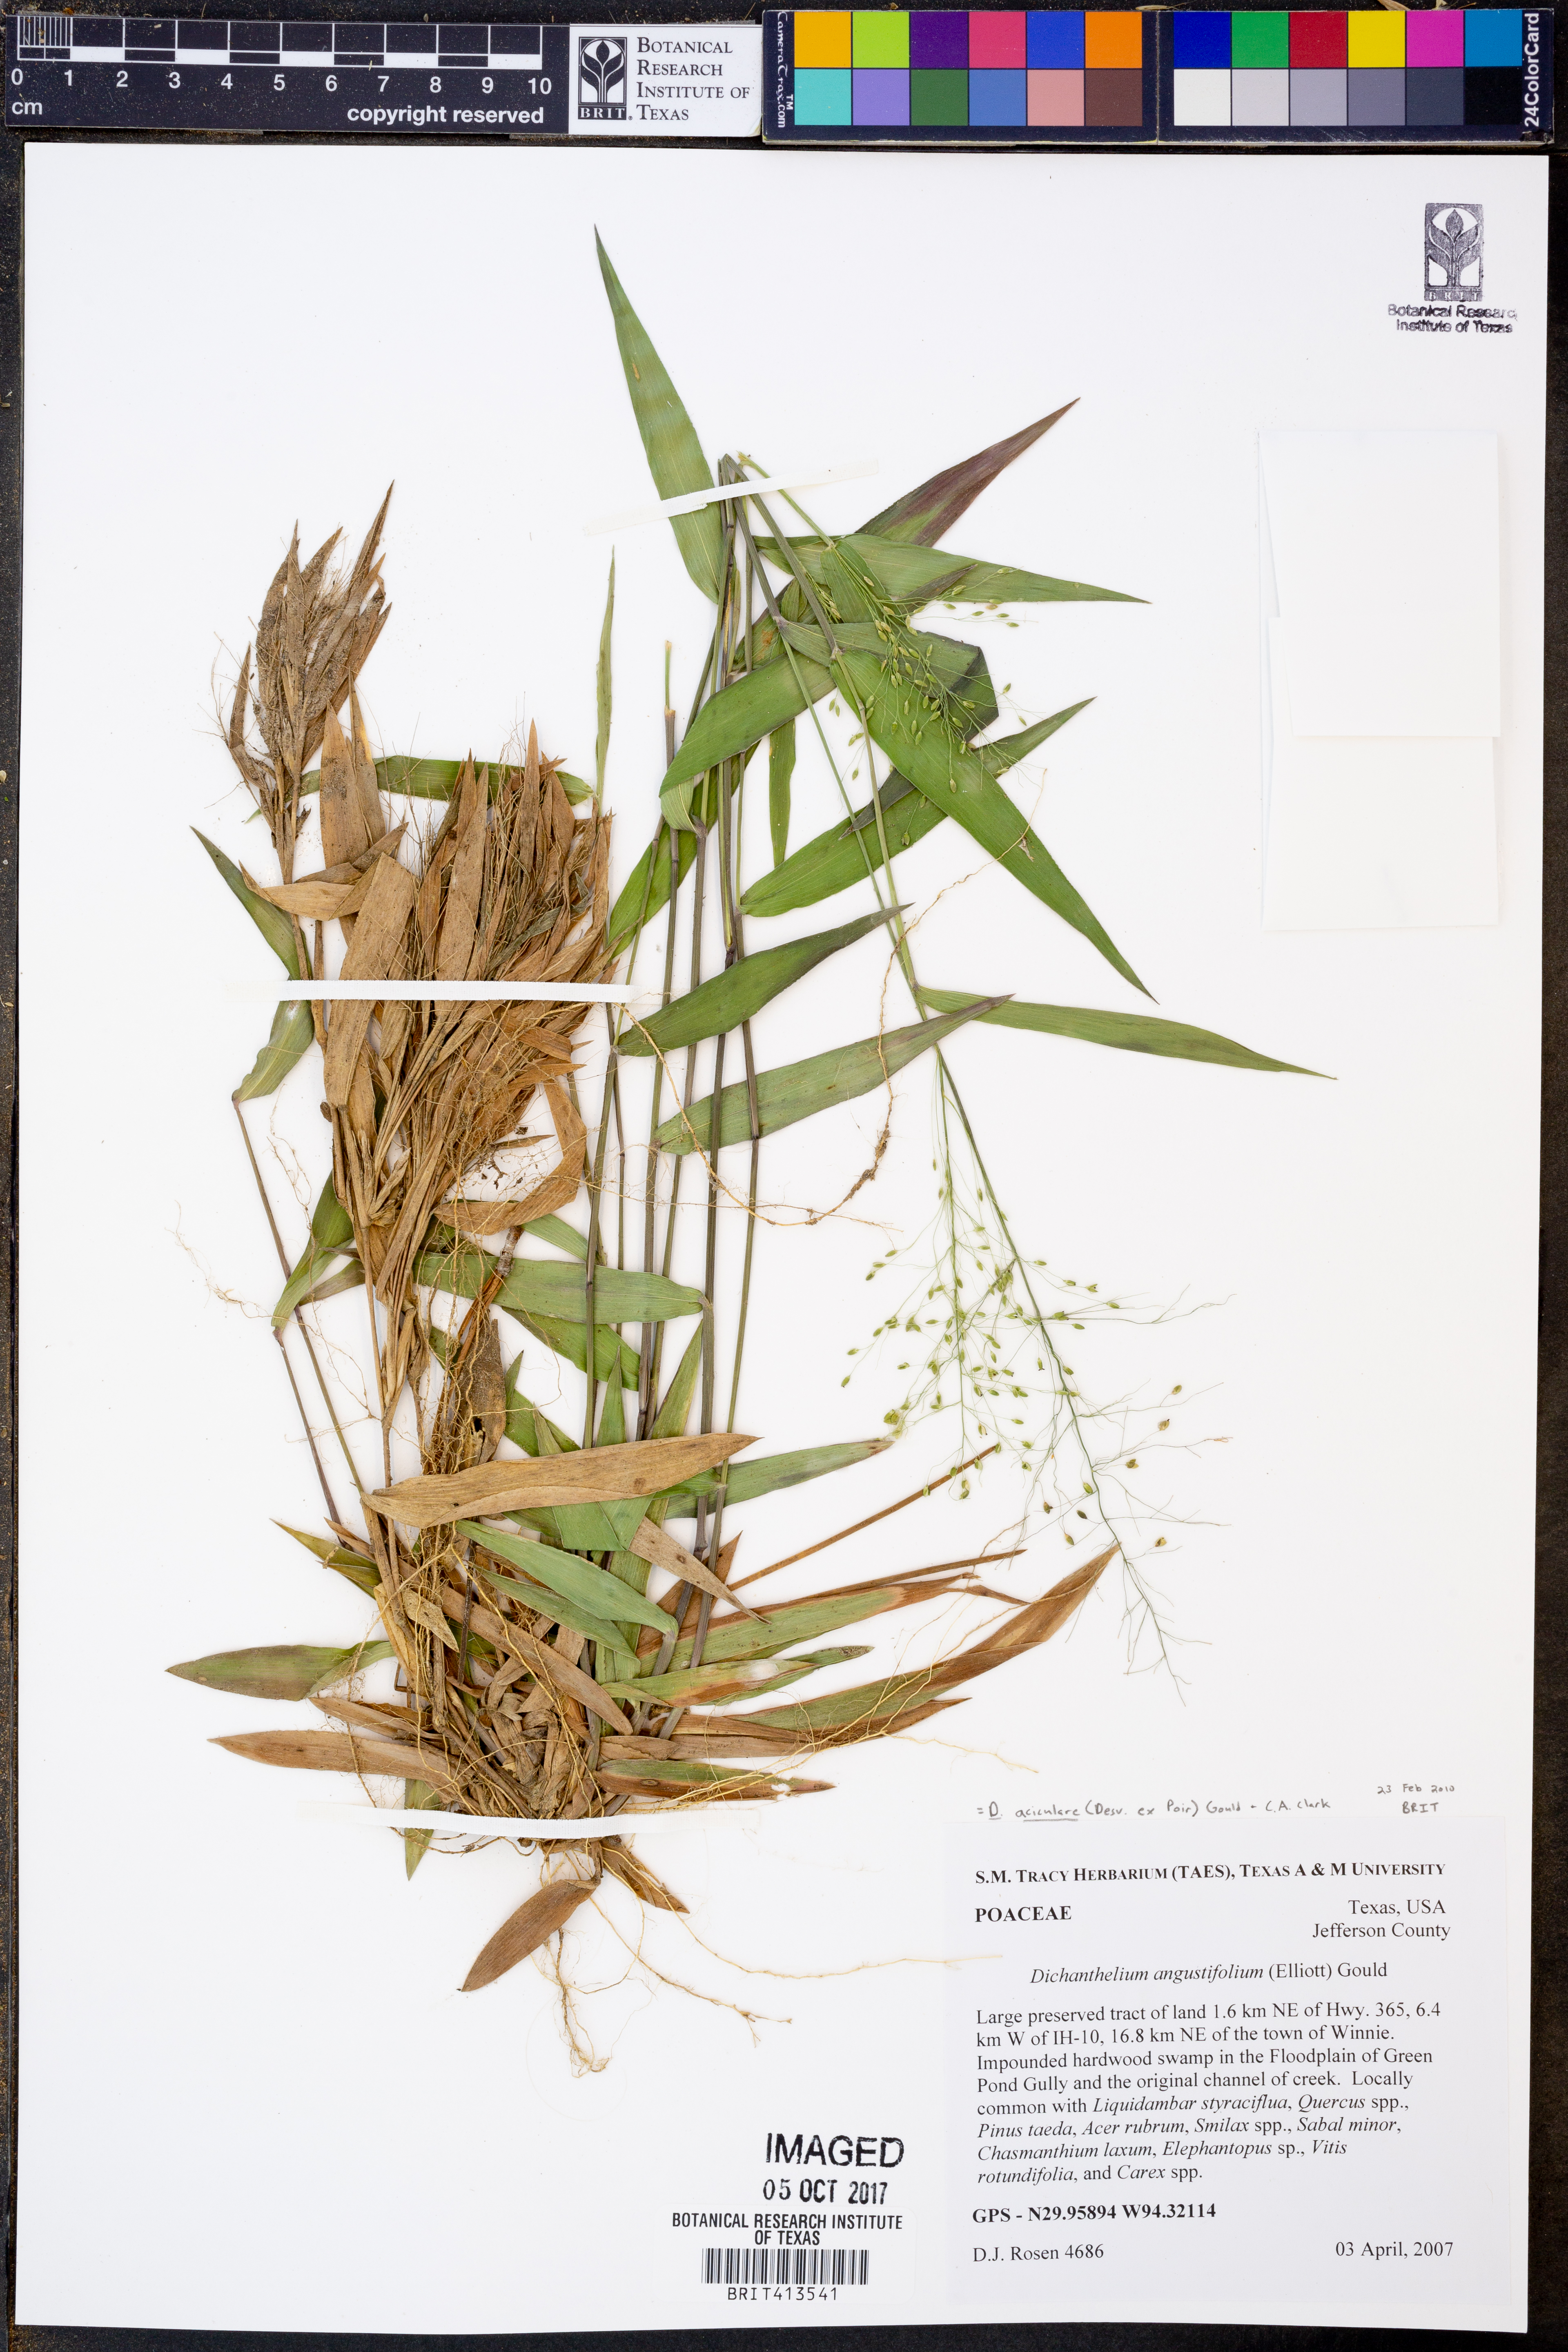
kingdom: Plantae
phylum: Tracheophyta
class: Liliopsida
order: Poales
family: Poaceae
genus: Dichanthelium
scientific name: Dichanthelium angustifolium
